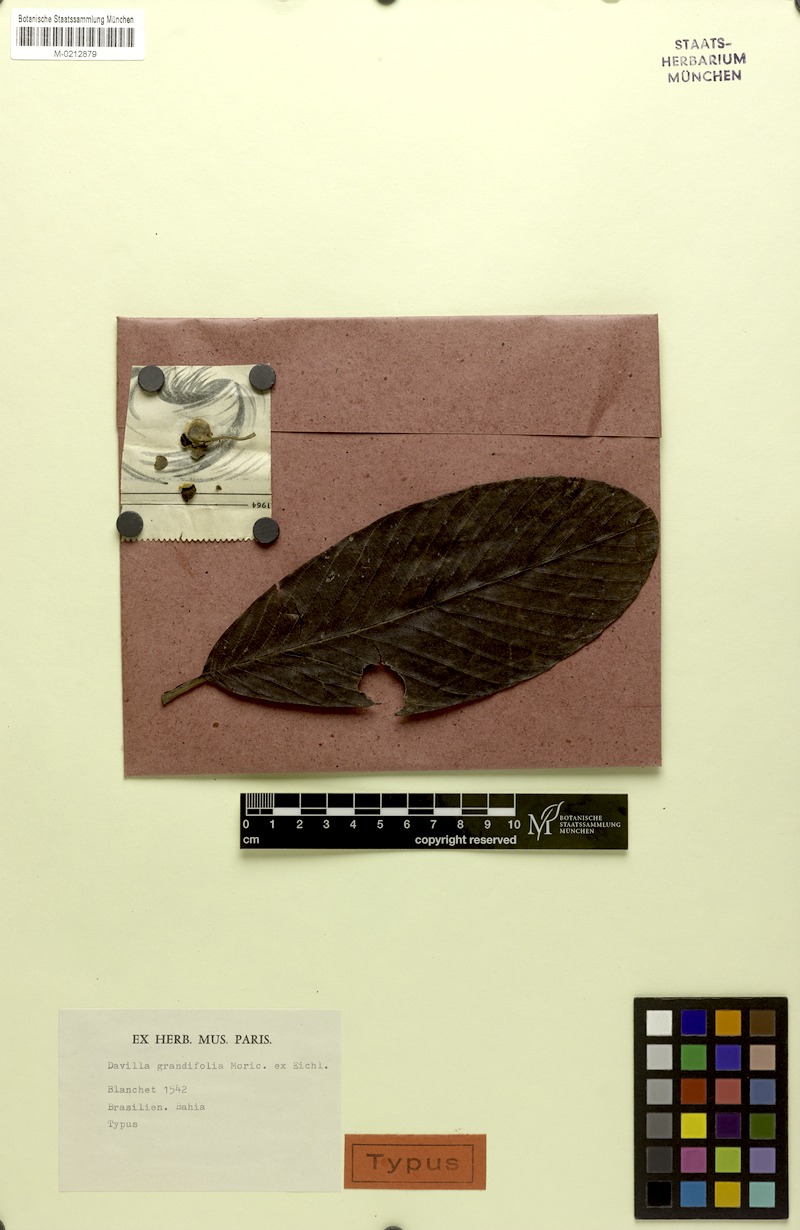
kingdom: Plantae
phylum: Tracheophyta
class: Magnoliopsida
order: Dilleniales
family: Dilleniaceae
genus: Davilla
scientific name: Davilla latifolia
